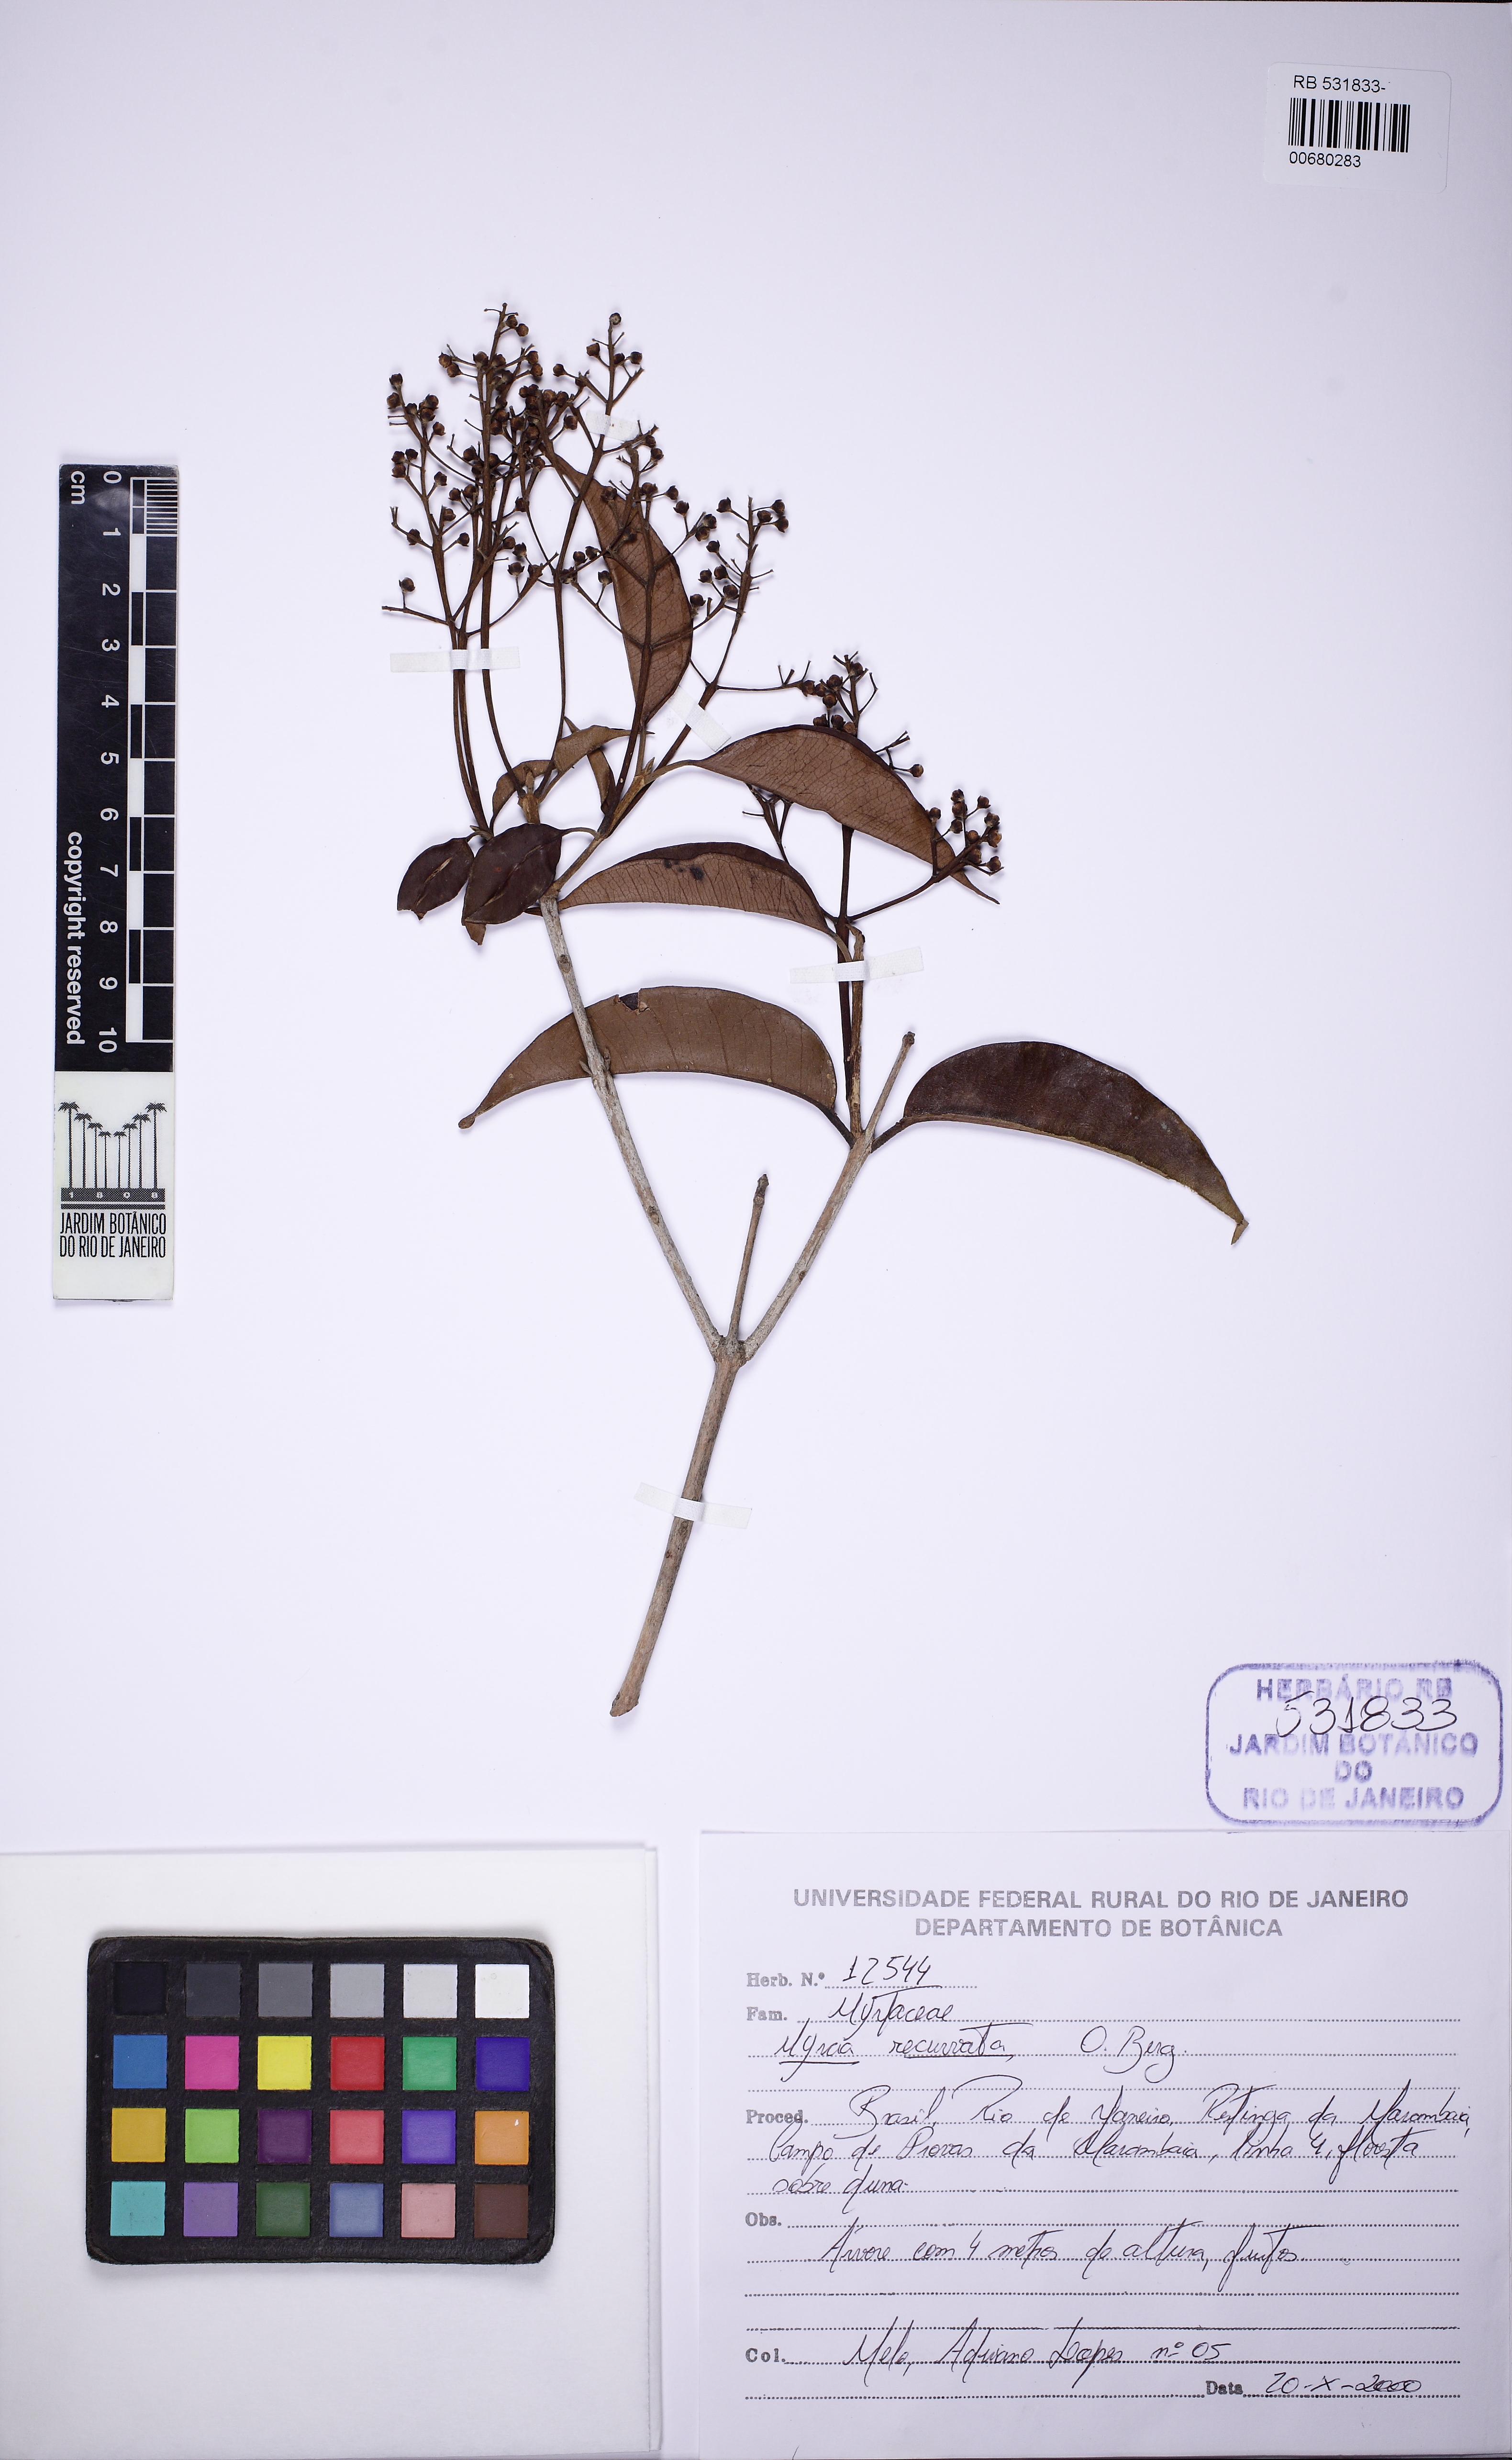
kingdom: Plantae
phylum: Tracheophyta
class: Magnoliopsida
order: Myrtales
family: Myrtaceae
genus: Myrcia
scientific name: Myrcia recurvata
